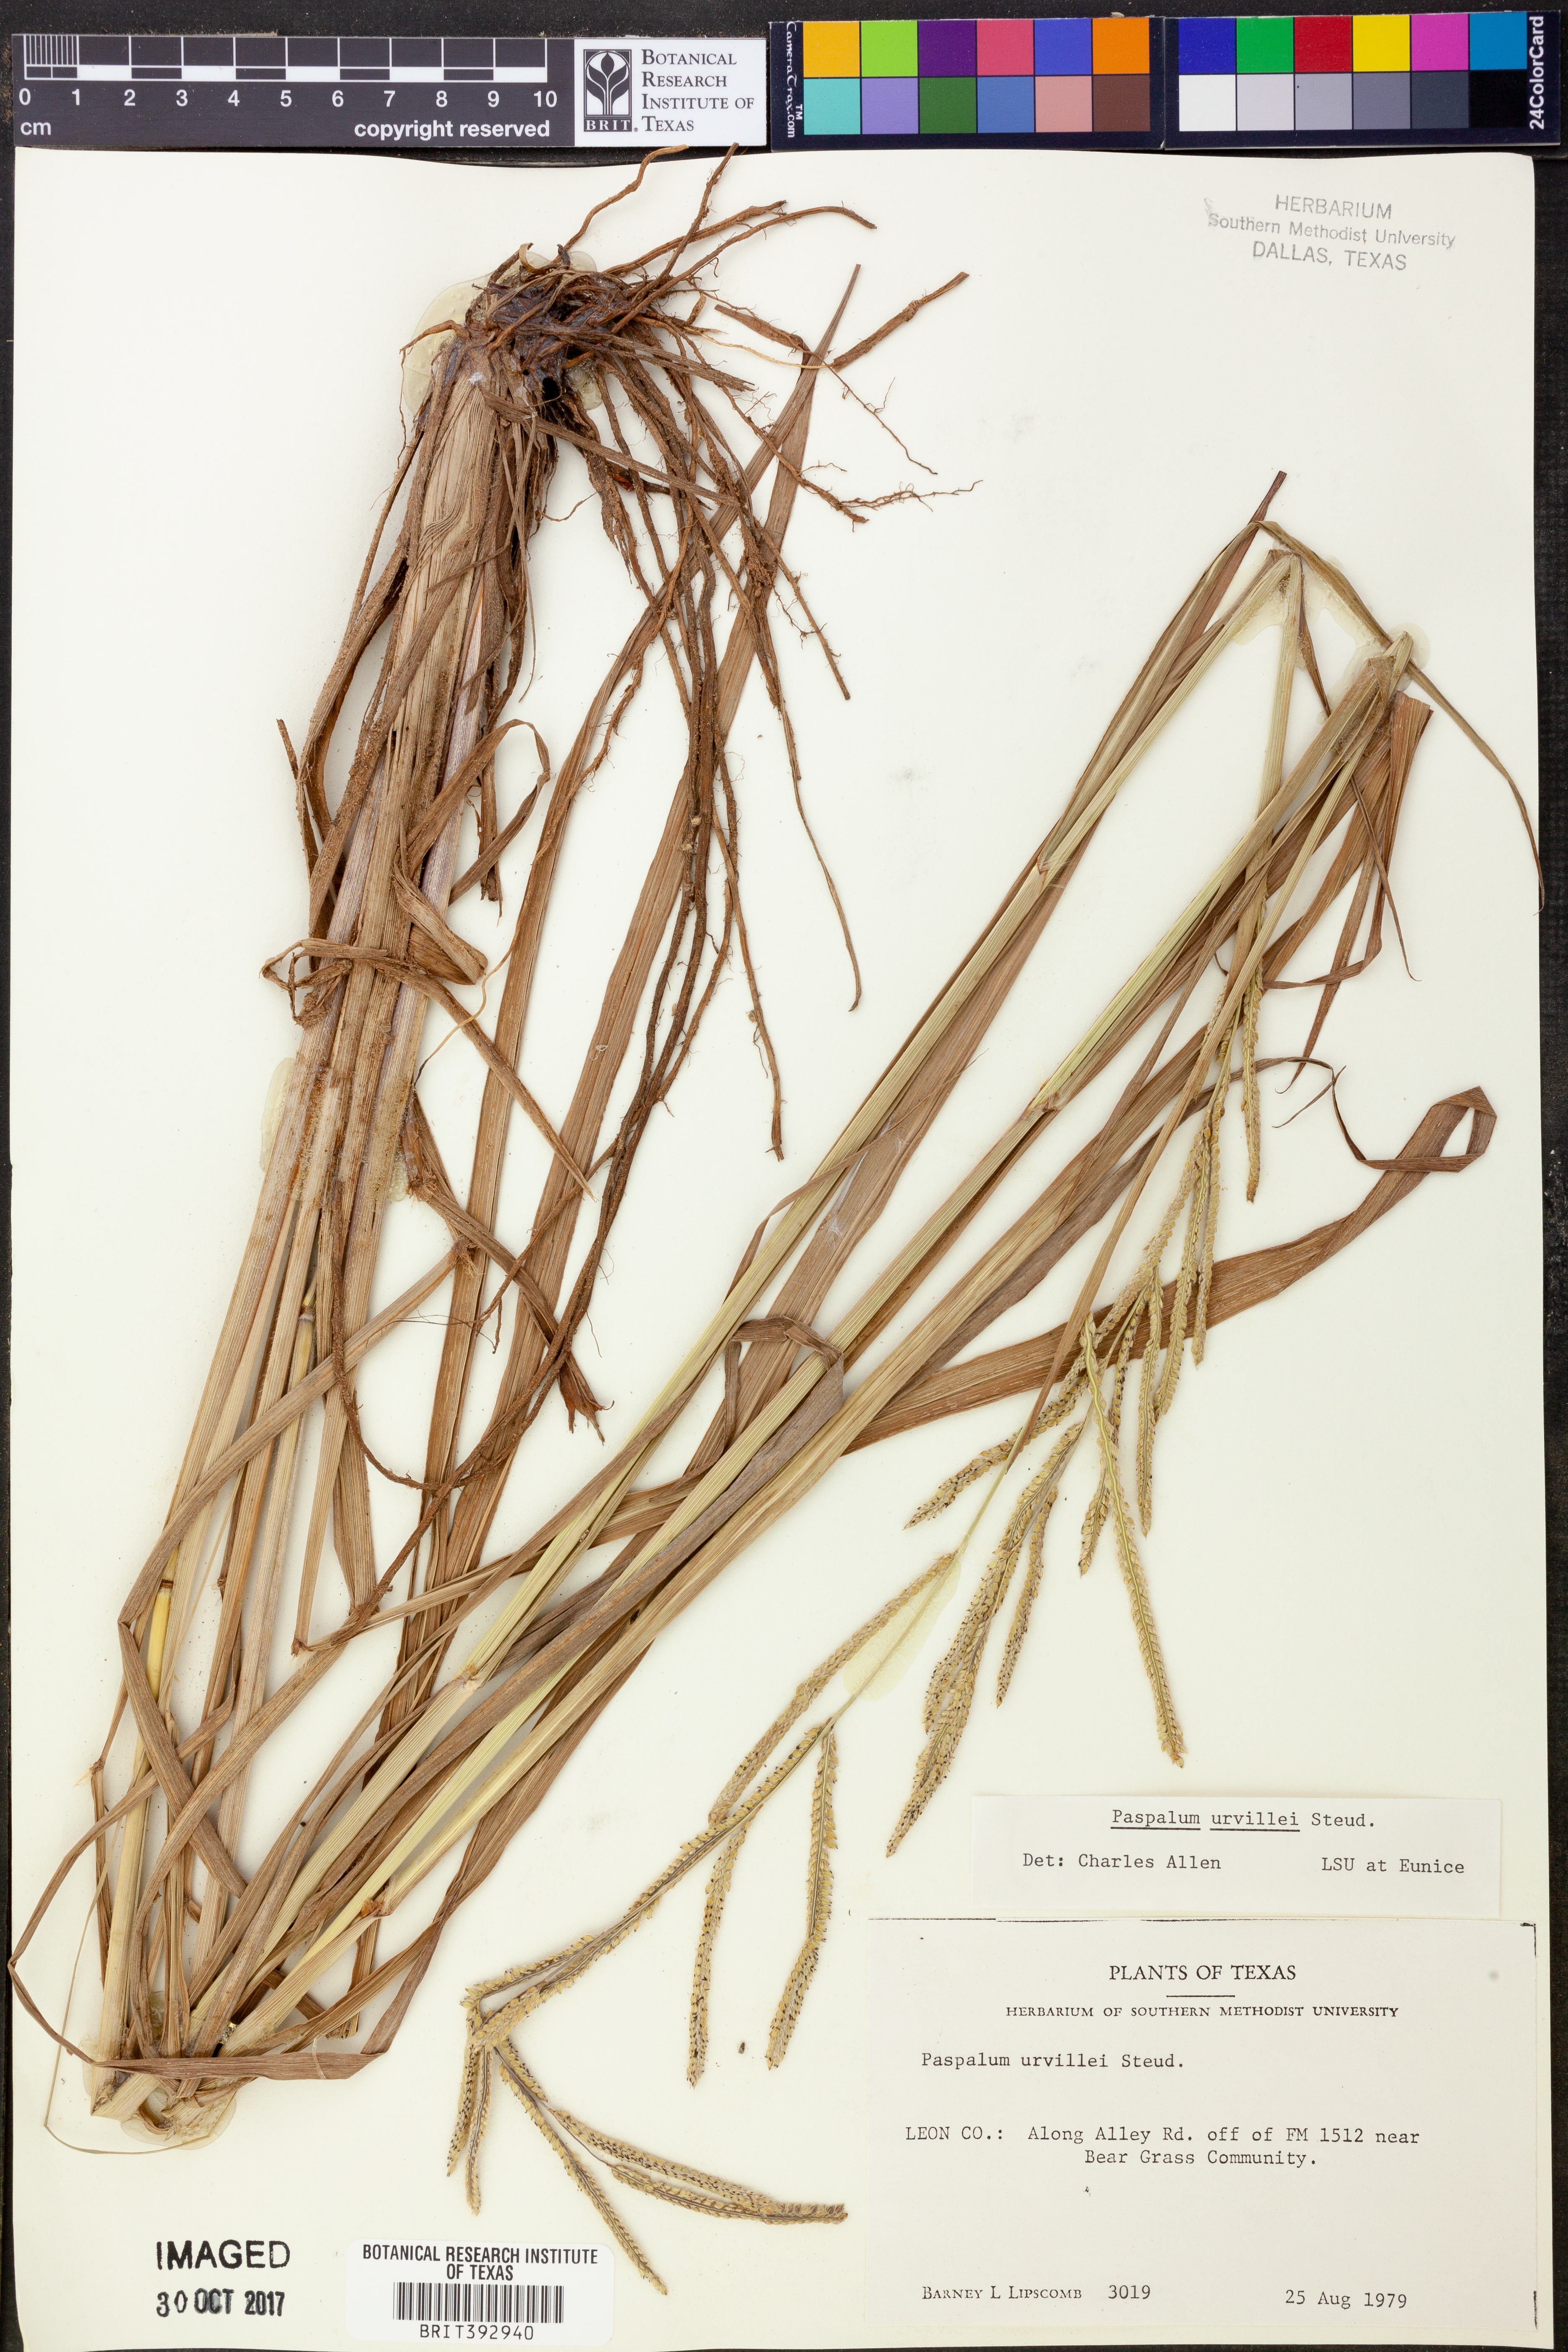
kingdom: Plantae
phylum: Tracheophyta
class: Liliopsida
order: Poales
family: Poaceae
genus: Paspalum
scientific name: Paspalum urvillei
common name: Vasey's grass
